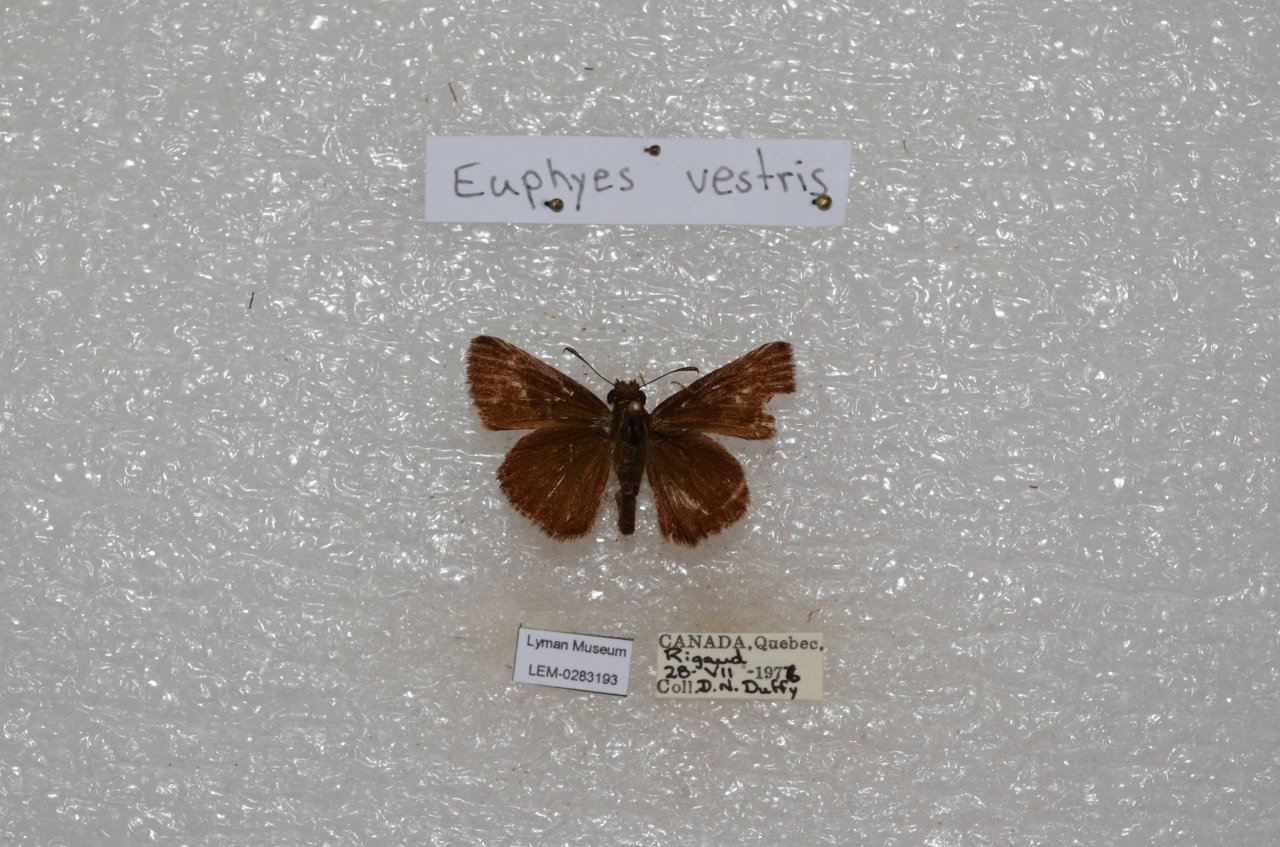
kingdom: Animalia
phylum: Arthropoda
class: Insecta
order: Lepidoptera
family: Hesperiidae
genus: Euphyes
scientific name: Euphyes vestris
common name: Dun Skipper
